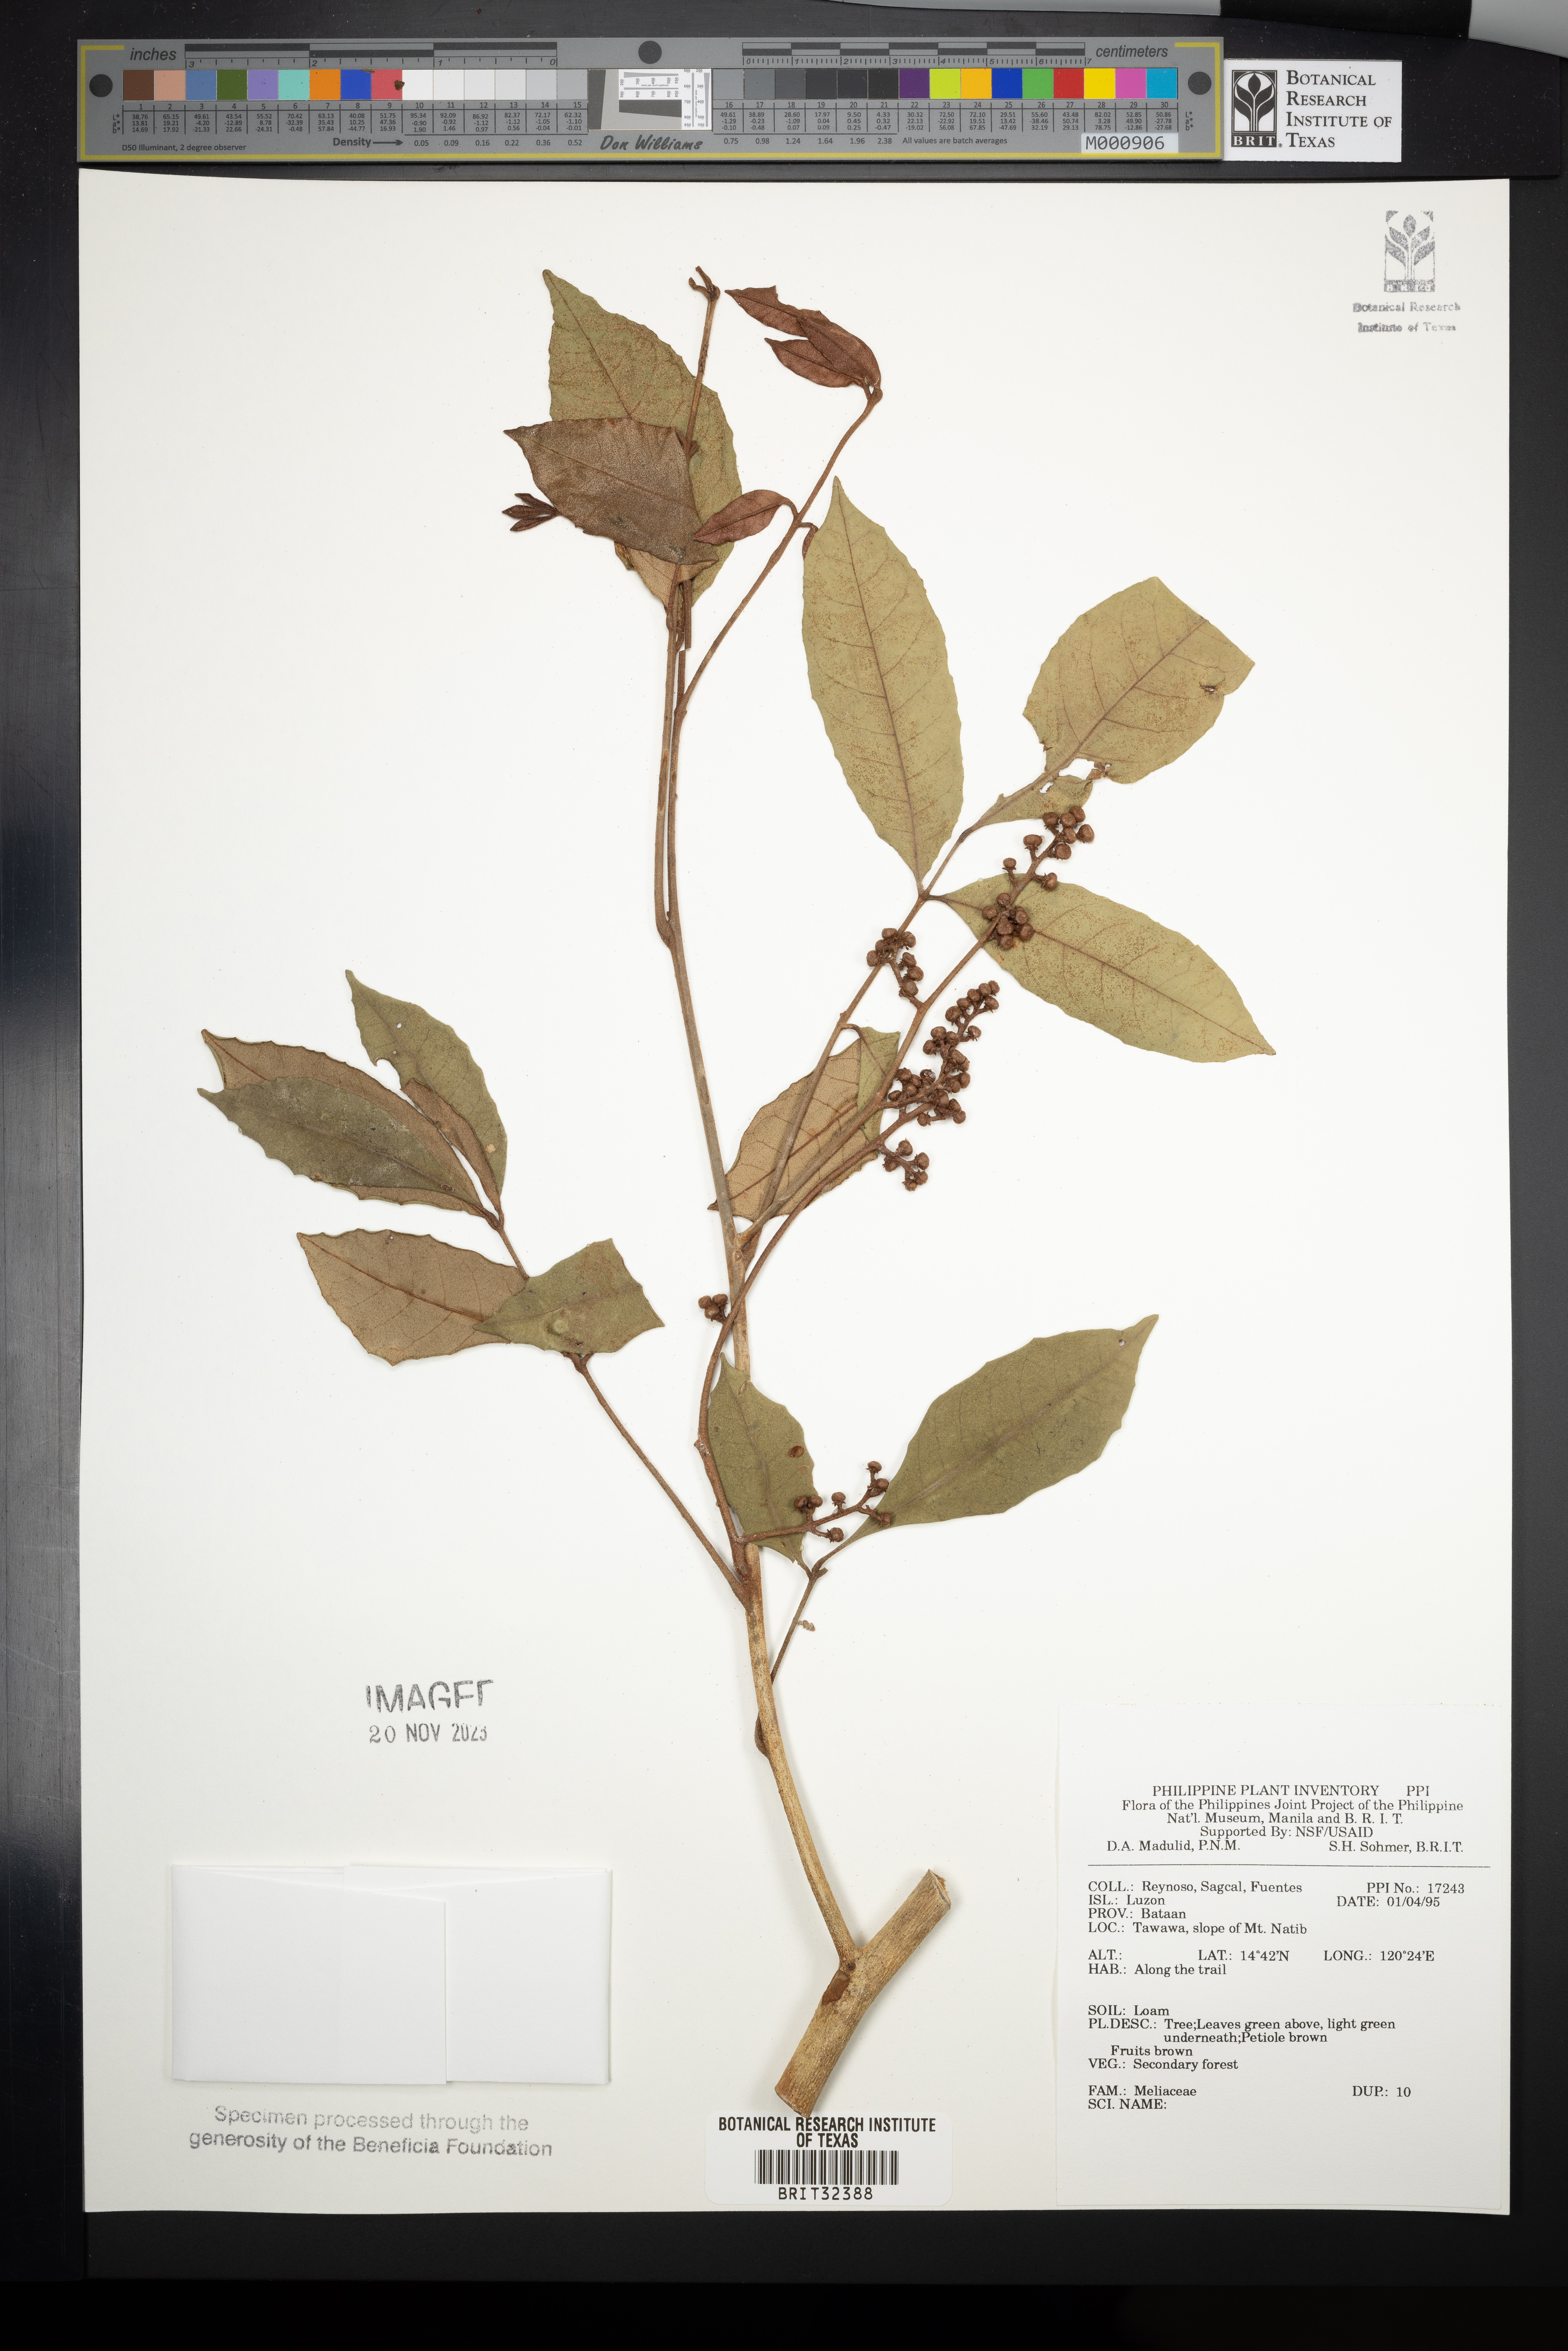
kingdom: Plantae
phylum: Tracheophyta
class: Magnoliopsida
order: Sapindales
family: Meliaceae
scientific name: Meliaceae
